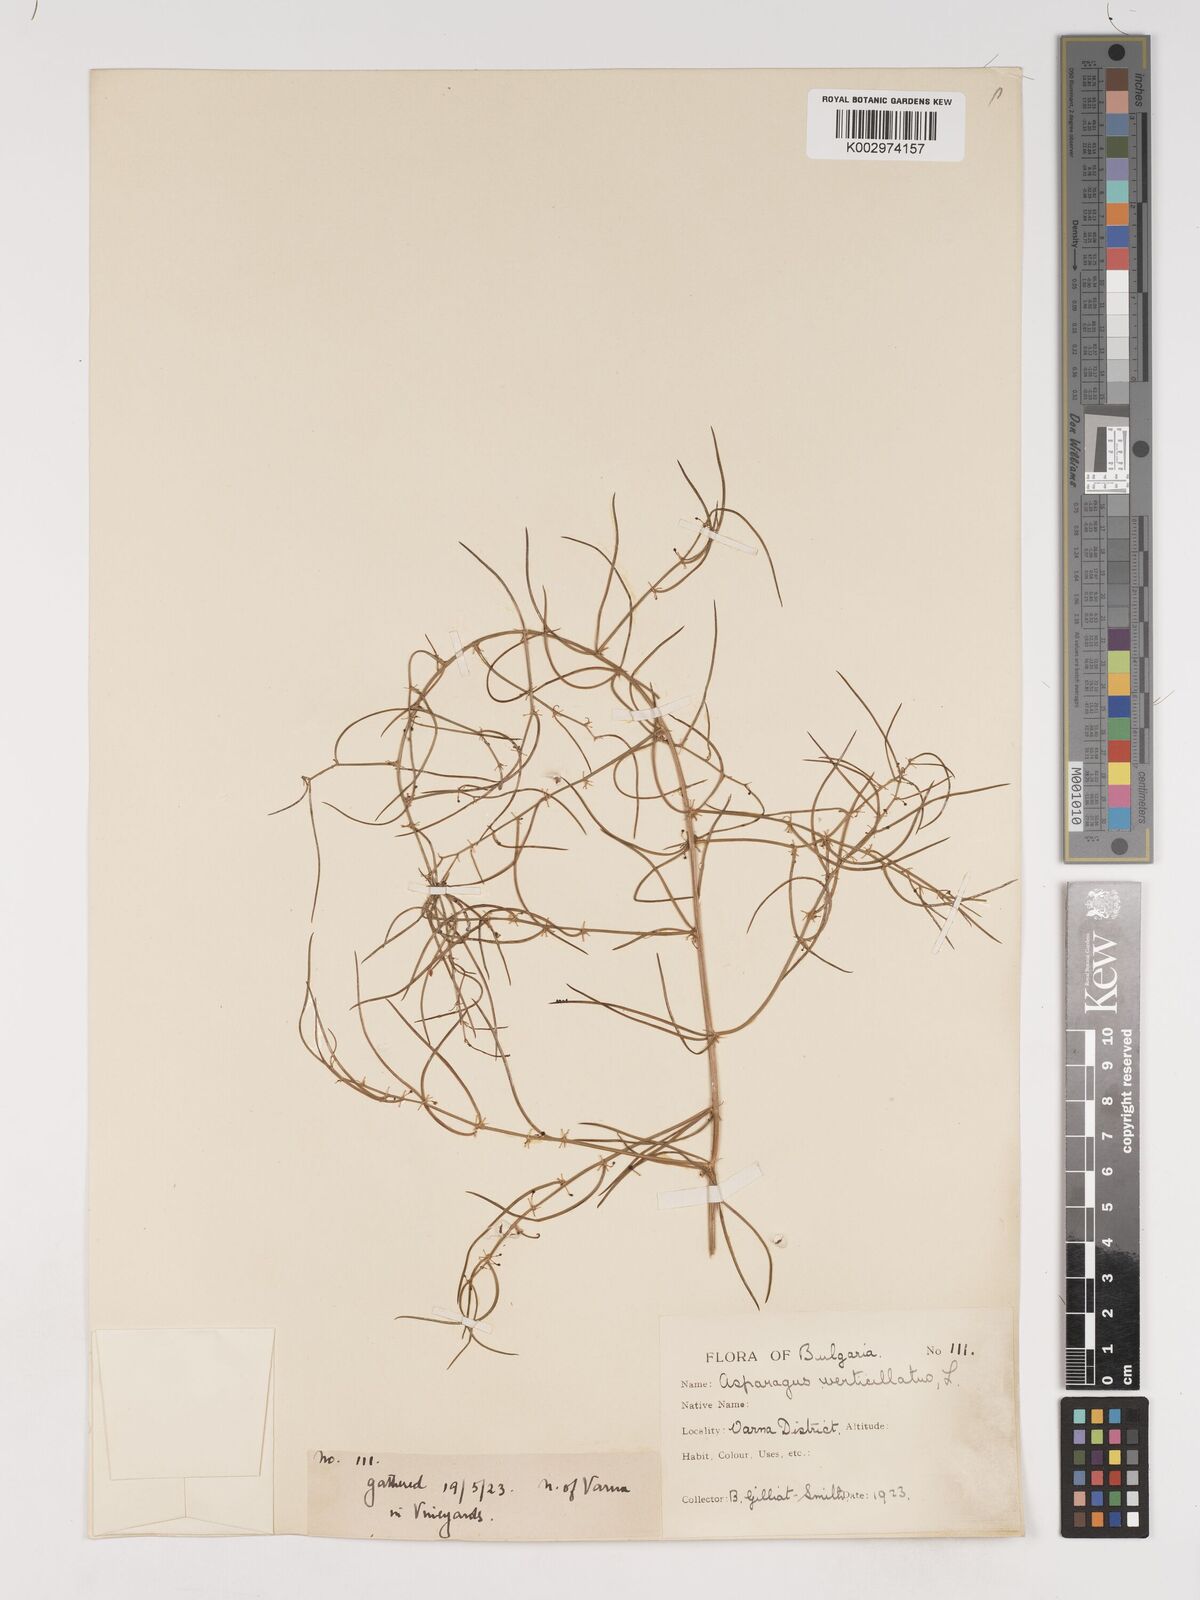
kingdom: Plantae
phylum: Tracheophyta
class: Liliopsida
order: Asparagales
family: Asparagaceae
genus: Asparagus
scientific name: Asparagus verticillatus
